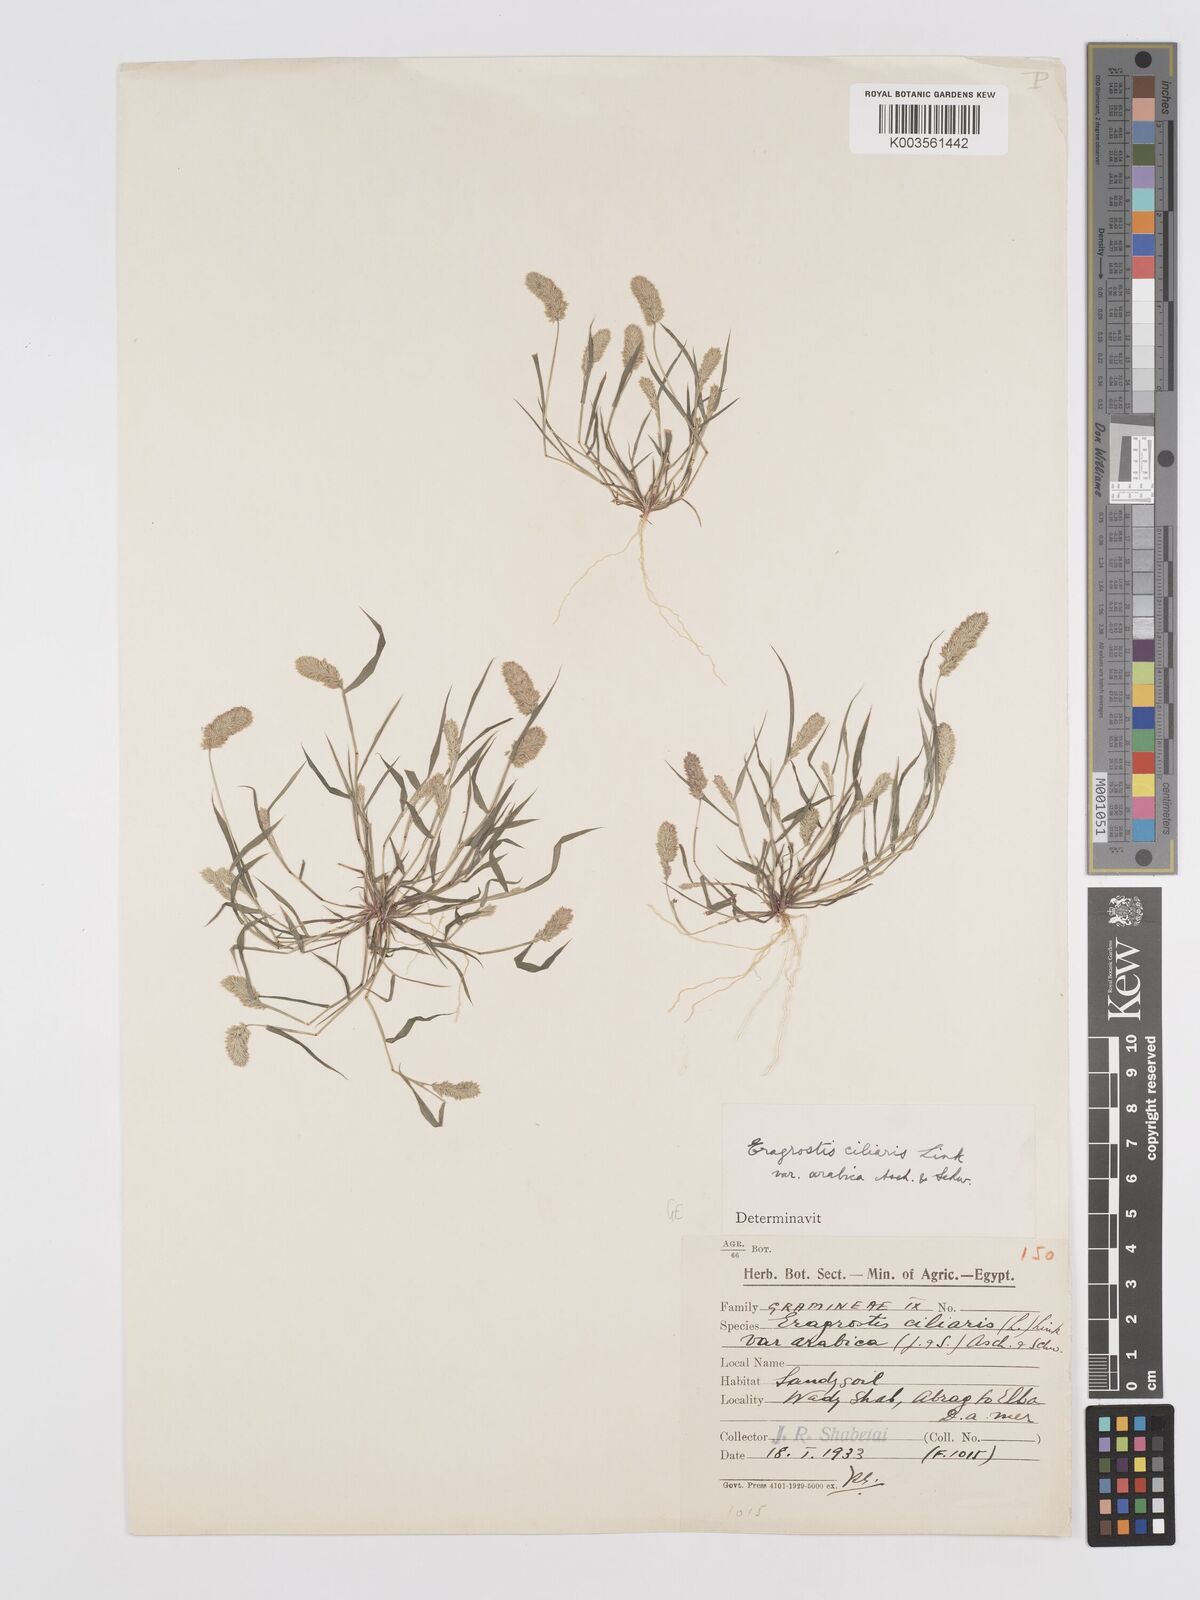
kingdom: Plantae
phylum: Tracheophyta
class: Liliopsida
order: Poales
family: Poaceae
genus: Eragrostis
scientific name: Eragrostis ciliaris
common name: Gophertail lovegrass
